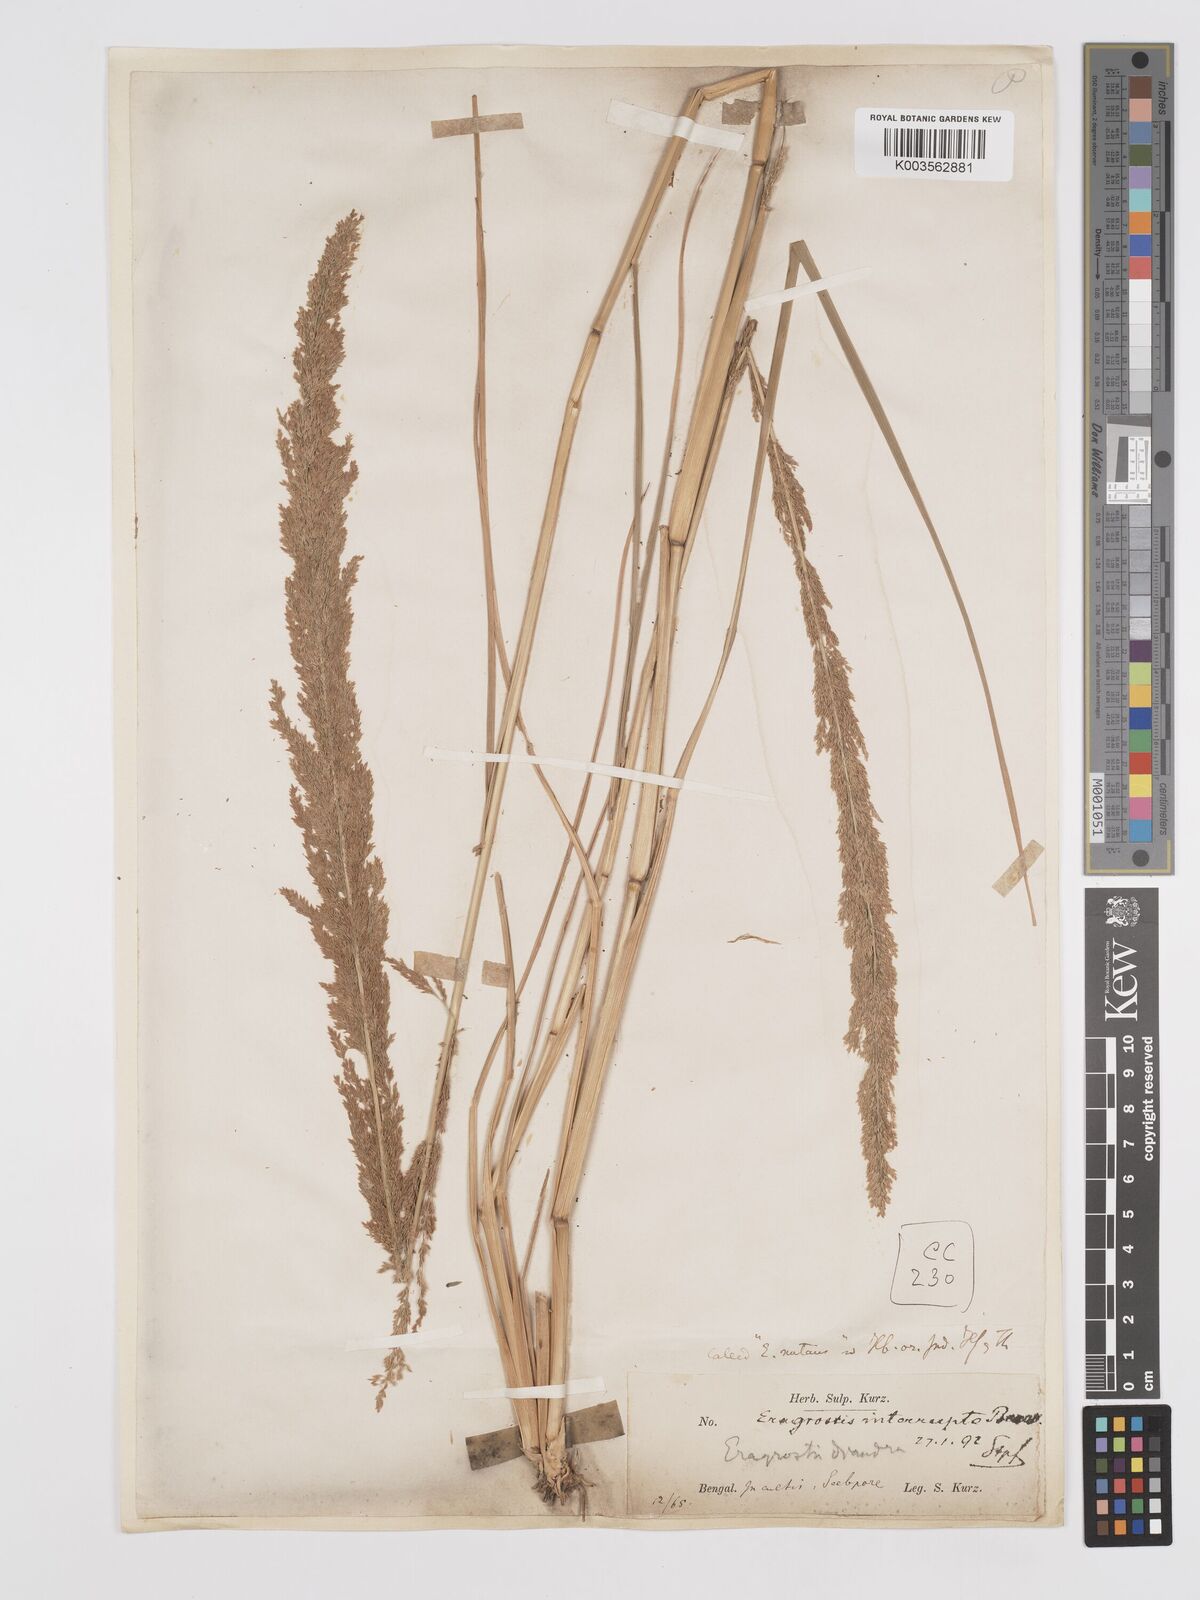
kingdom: Plantae
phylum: Tracheophyta
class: Liliopsida
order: Poales
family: Poaceae
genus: Eragrostis
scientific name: Eragrostis japonica
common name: Pond lovegrass
